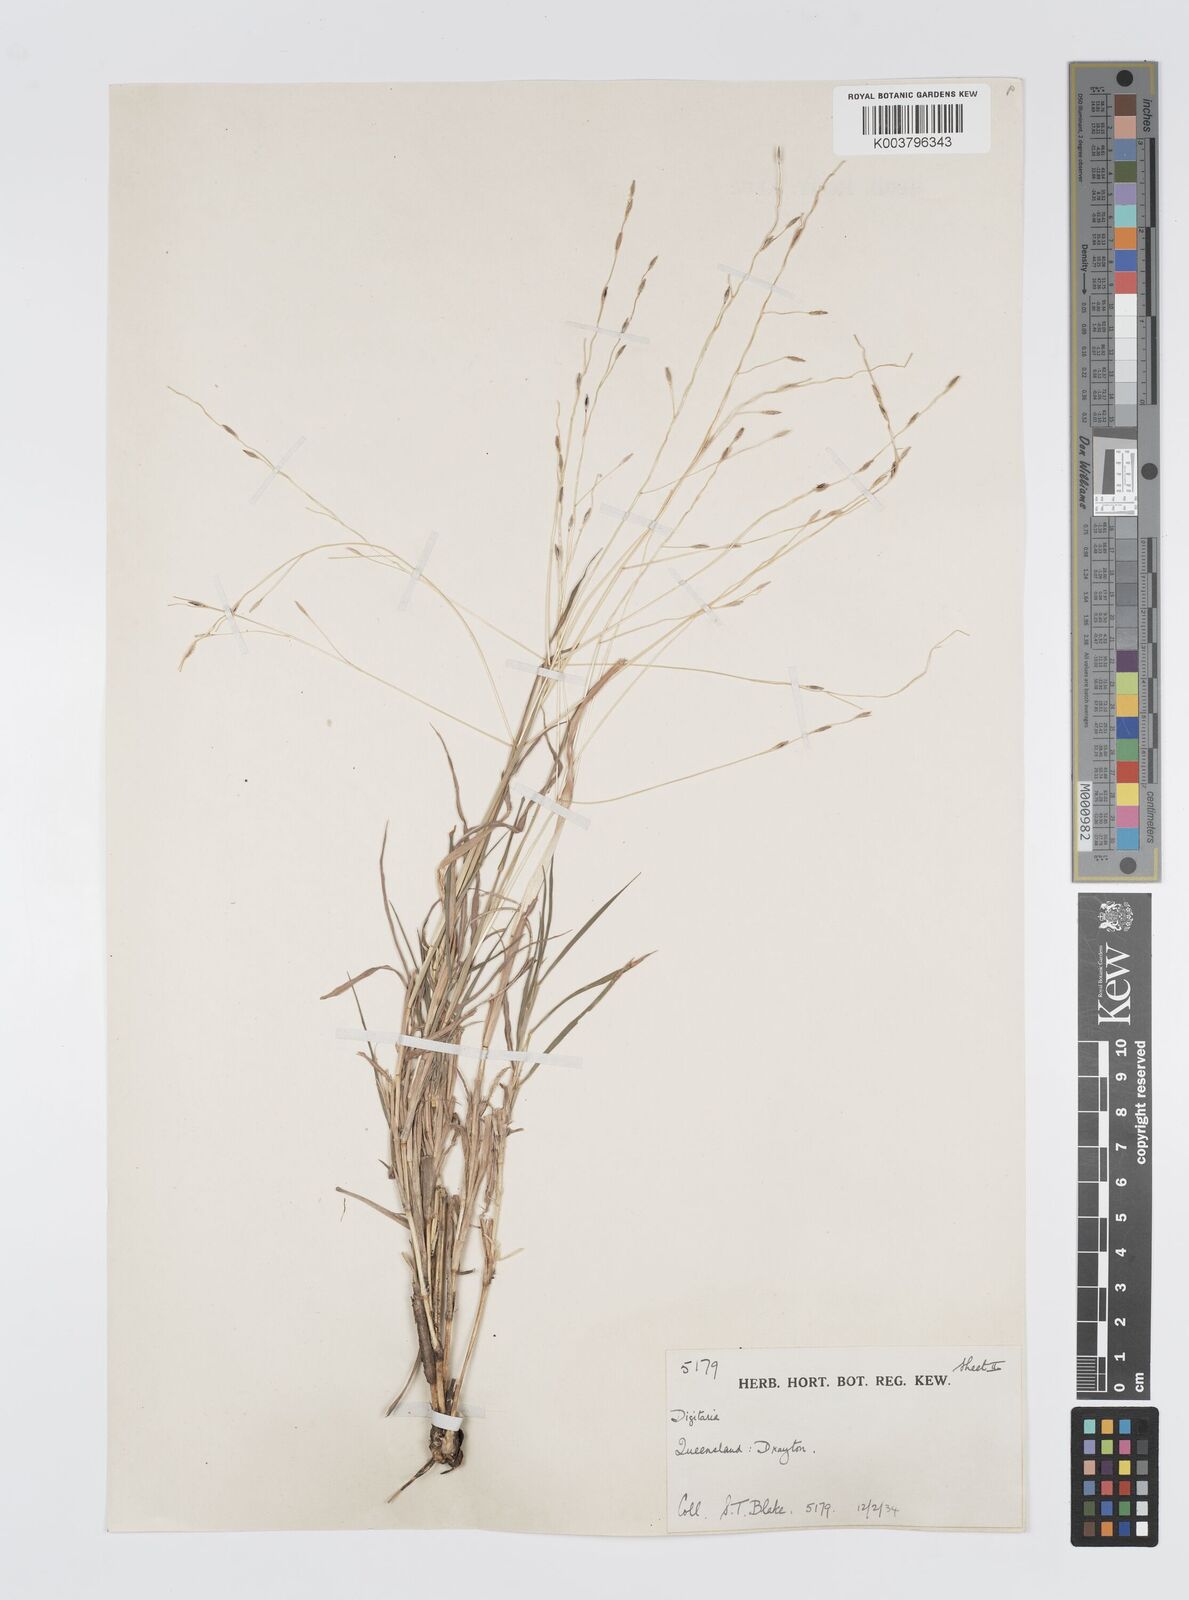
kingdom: Plantae
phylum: Tracheophyta
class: Liliopsida
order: Poales
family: Poaceae
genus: Digitaria
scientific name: Digitaria divaricatissima
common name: Crabgrass
